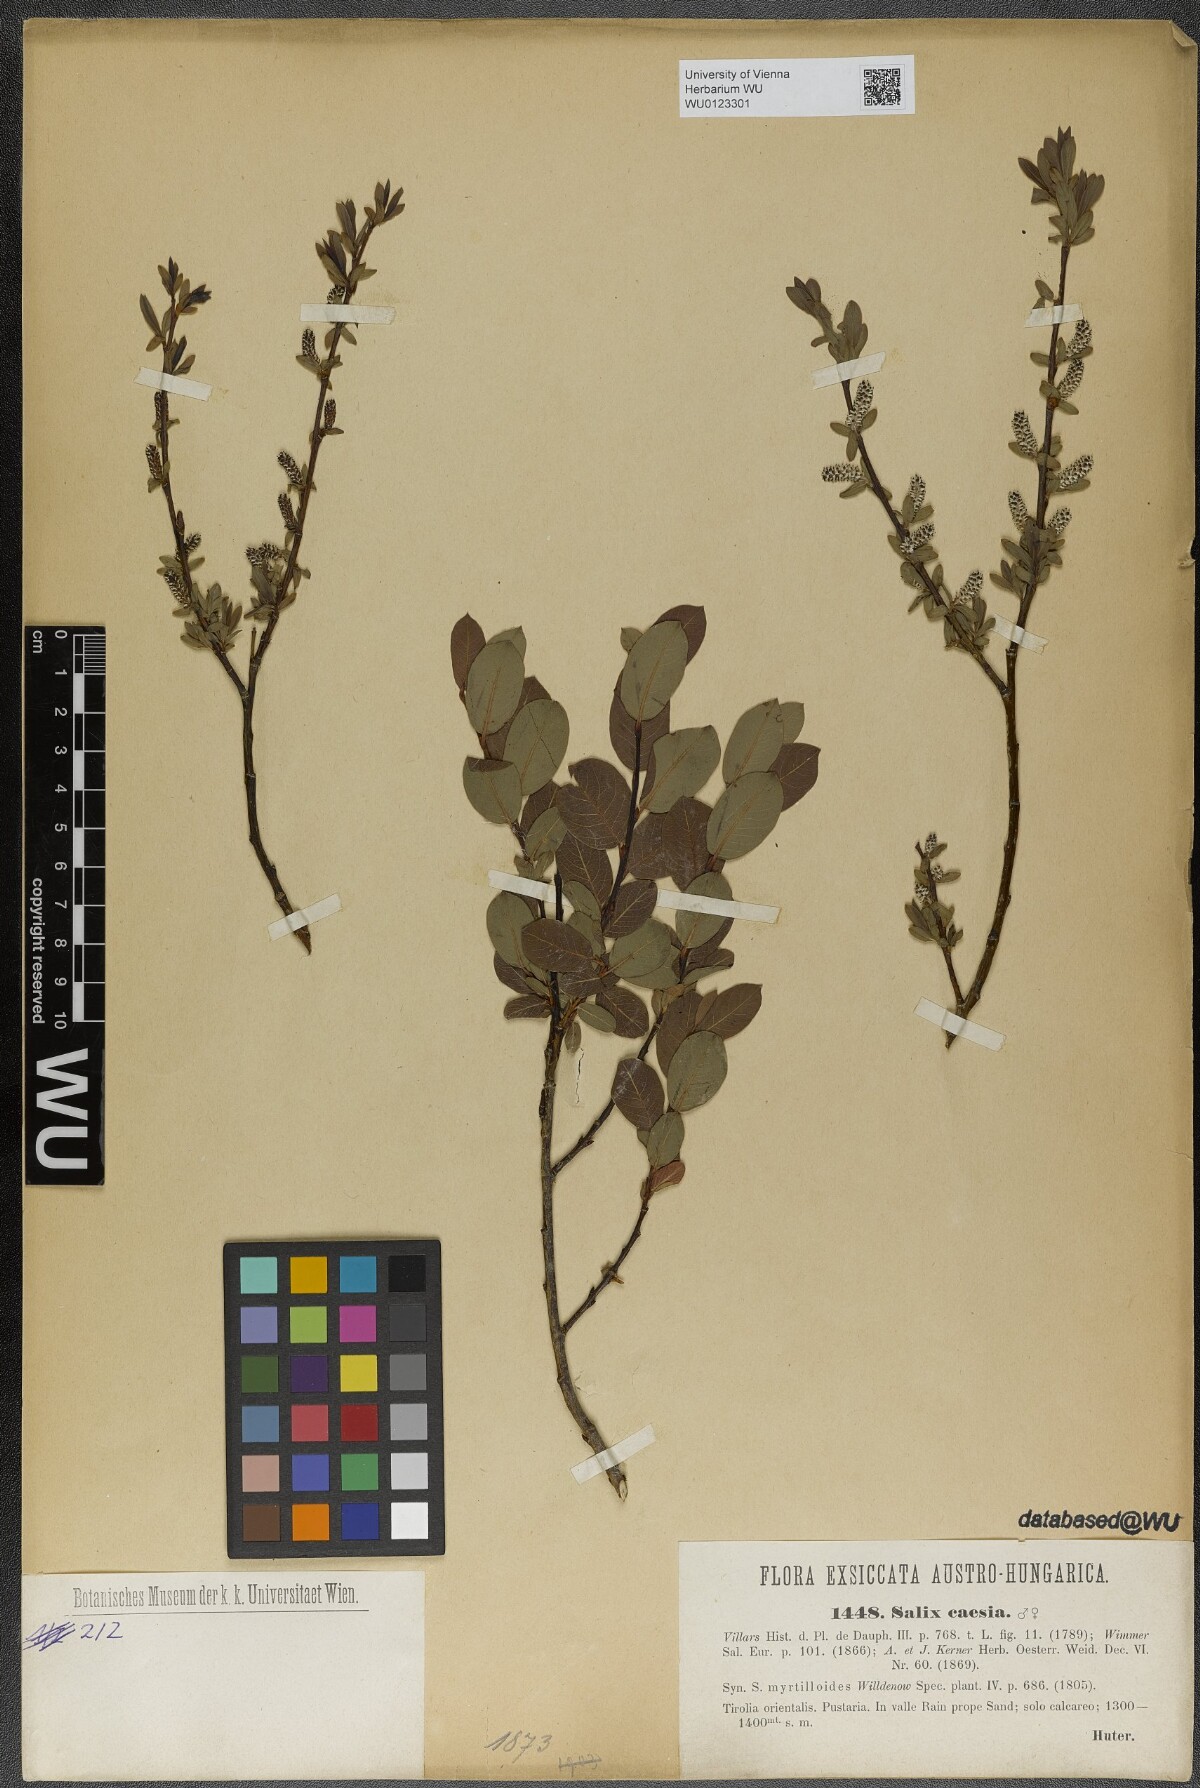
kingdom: Plantae
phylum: Tracheophyta
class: Magnoliopsida
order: Malpighiales
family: Salicaceae
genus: Salix
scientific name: Salix caesia
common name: Blue willow
